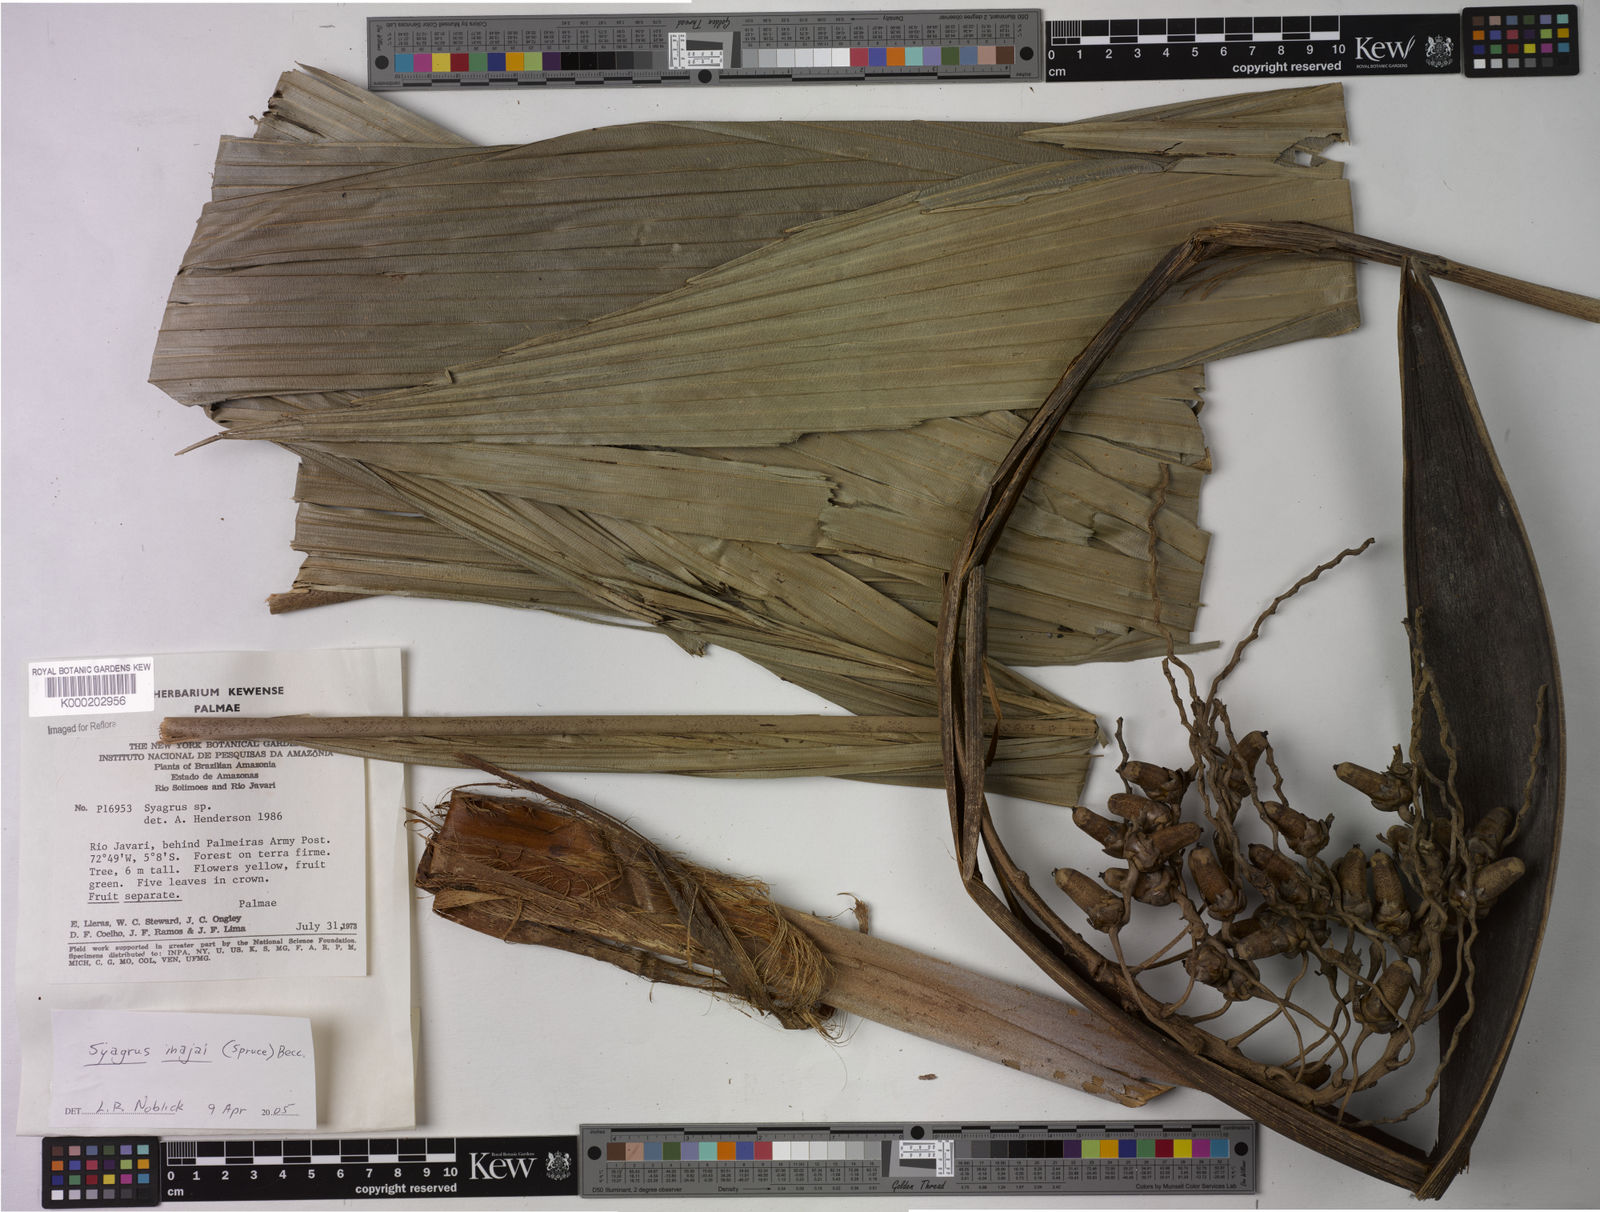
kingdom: Plantae
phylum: Tracheophyta
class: Liliopsida
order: Arecales
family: Arecaceae
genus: Syagrus
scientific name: Syagrus
